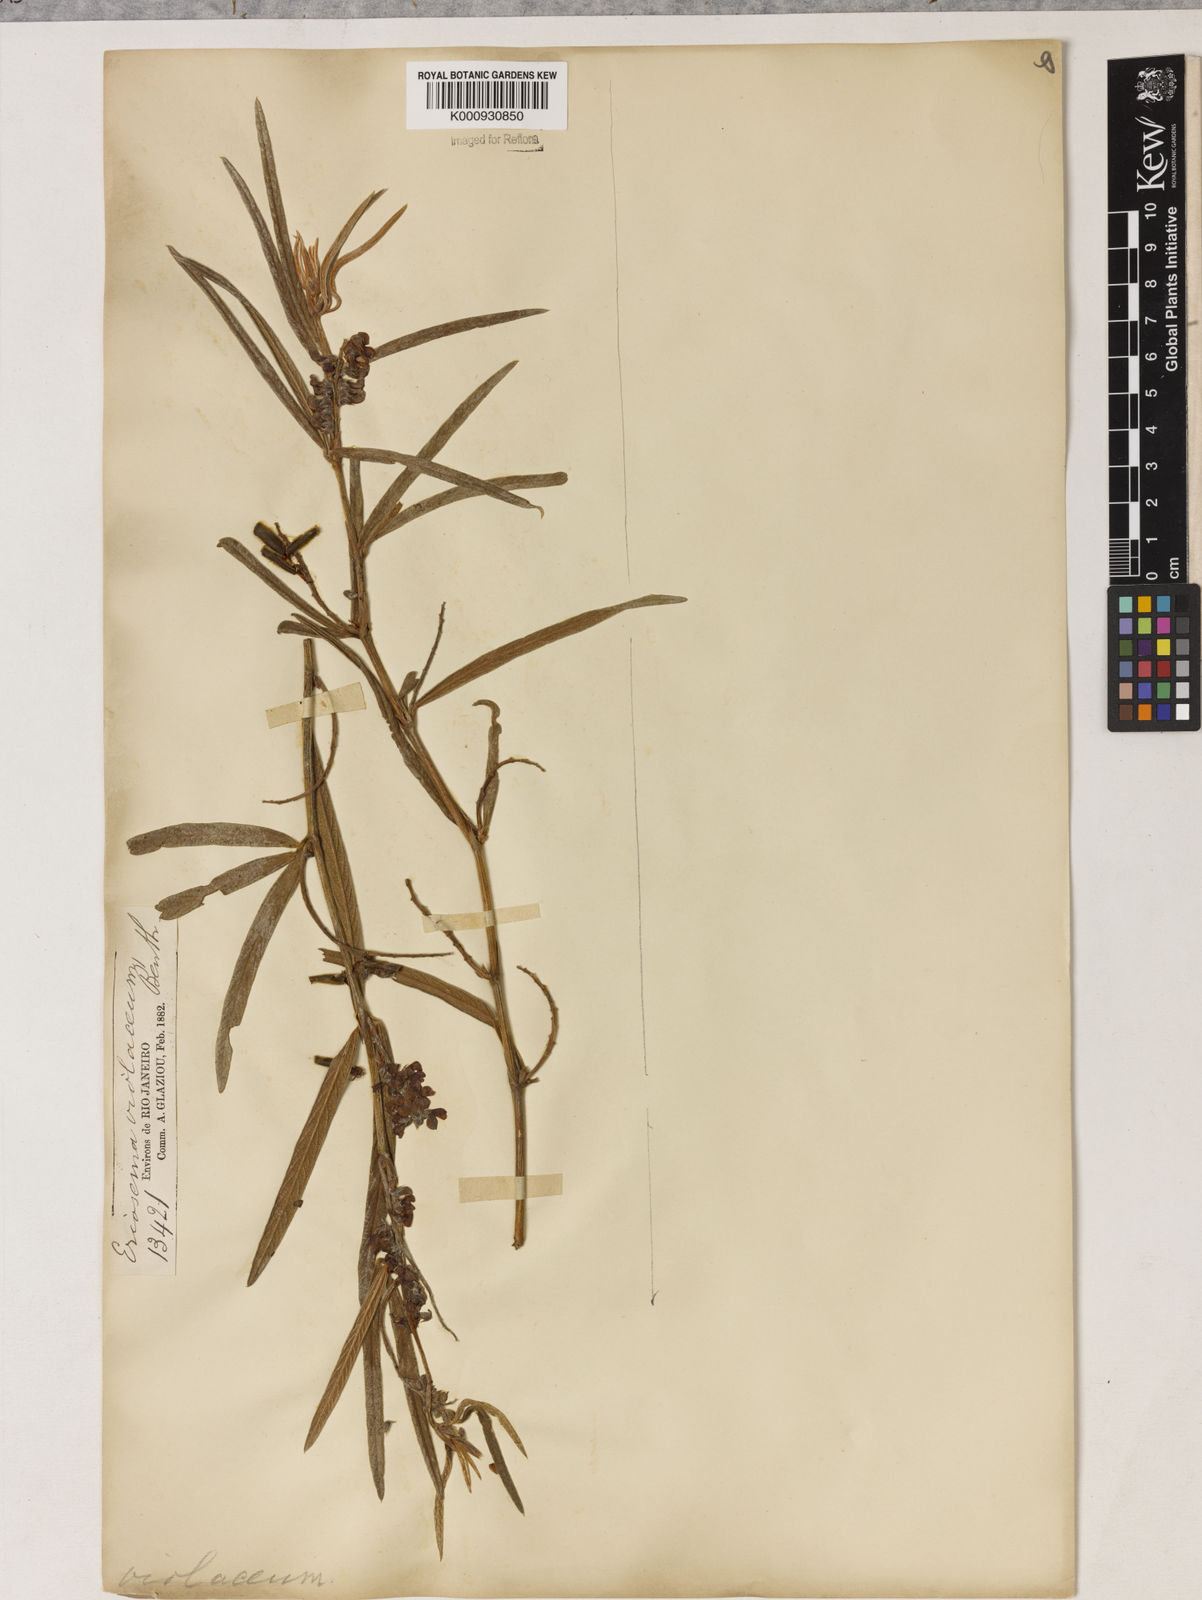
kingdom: Plantae
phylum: Tracheophyta
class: Magnoliopsida
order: Fabales
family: Fabaceae
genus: Eriosema
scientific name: Eriosema violaceum
